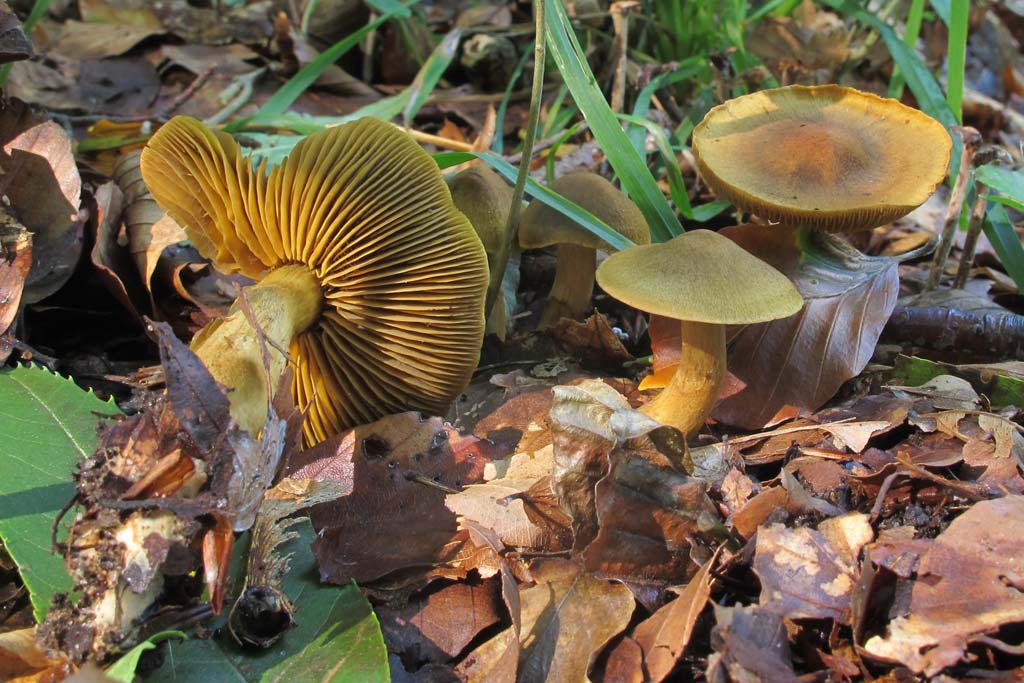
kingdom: Fungi
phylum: Basidiomycota
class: Agaricomycetes
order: Agaricales
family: Cortinariaceae
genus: Cortinarius
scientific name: Cortinarius olivaceofuscus
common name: olivenbrun slørhat
